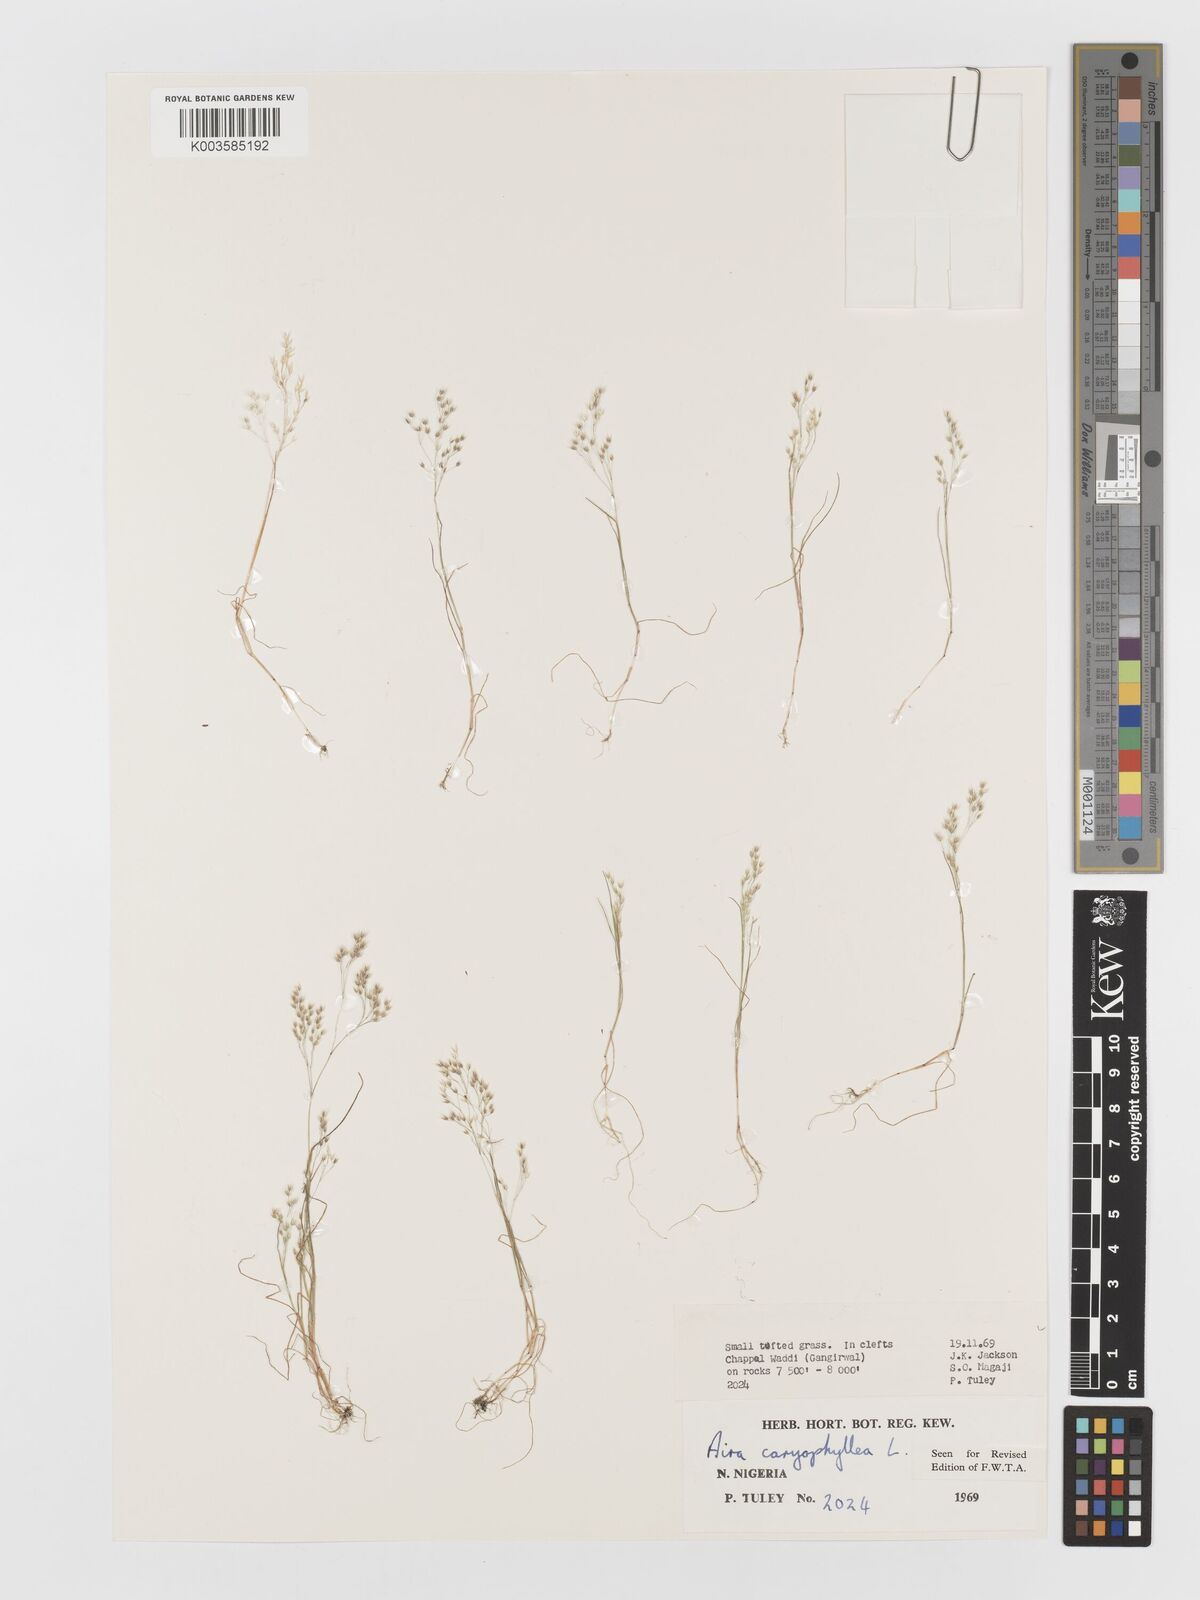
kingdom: Plantae
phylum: Tracheophyta
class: Liliopsida
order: Poales
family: Poaceae
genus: Aira
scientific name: Aira caryophyllea
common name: Silver hairgrass
